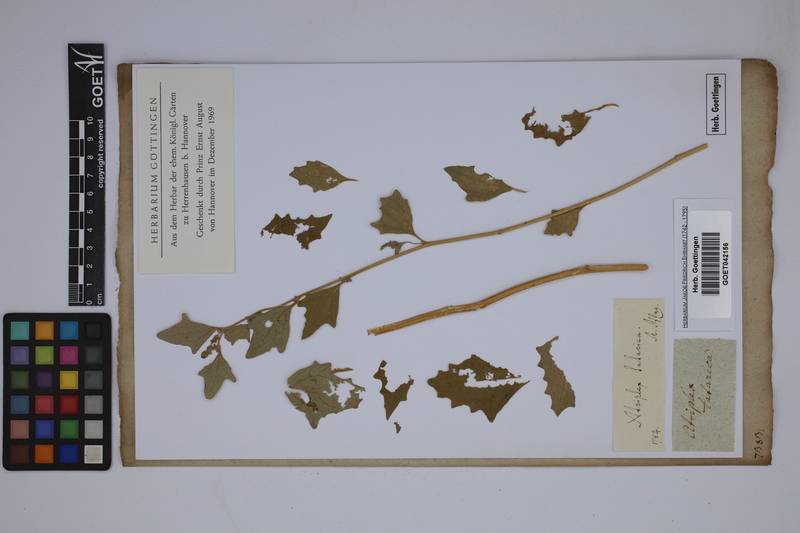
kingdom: Plantae
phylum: Tracheophyta
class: Magnoliopsida
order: Caryophyllales
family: Amaranthaceae
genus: Atriplex
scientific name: Atriplex tartarica
